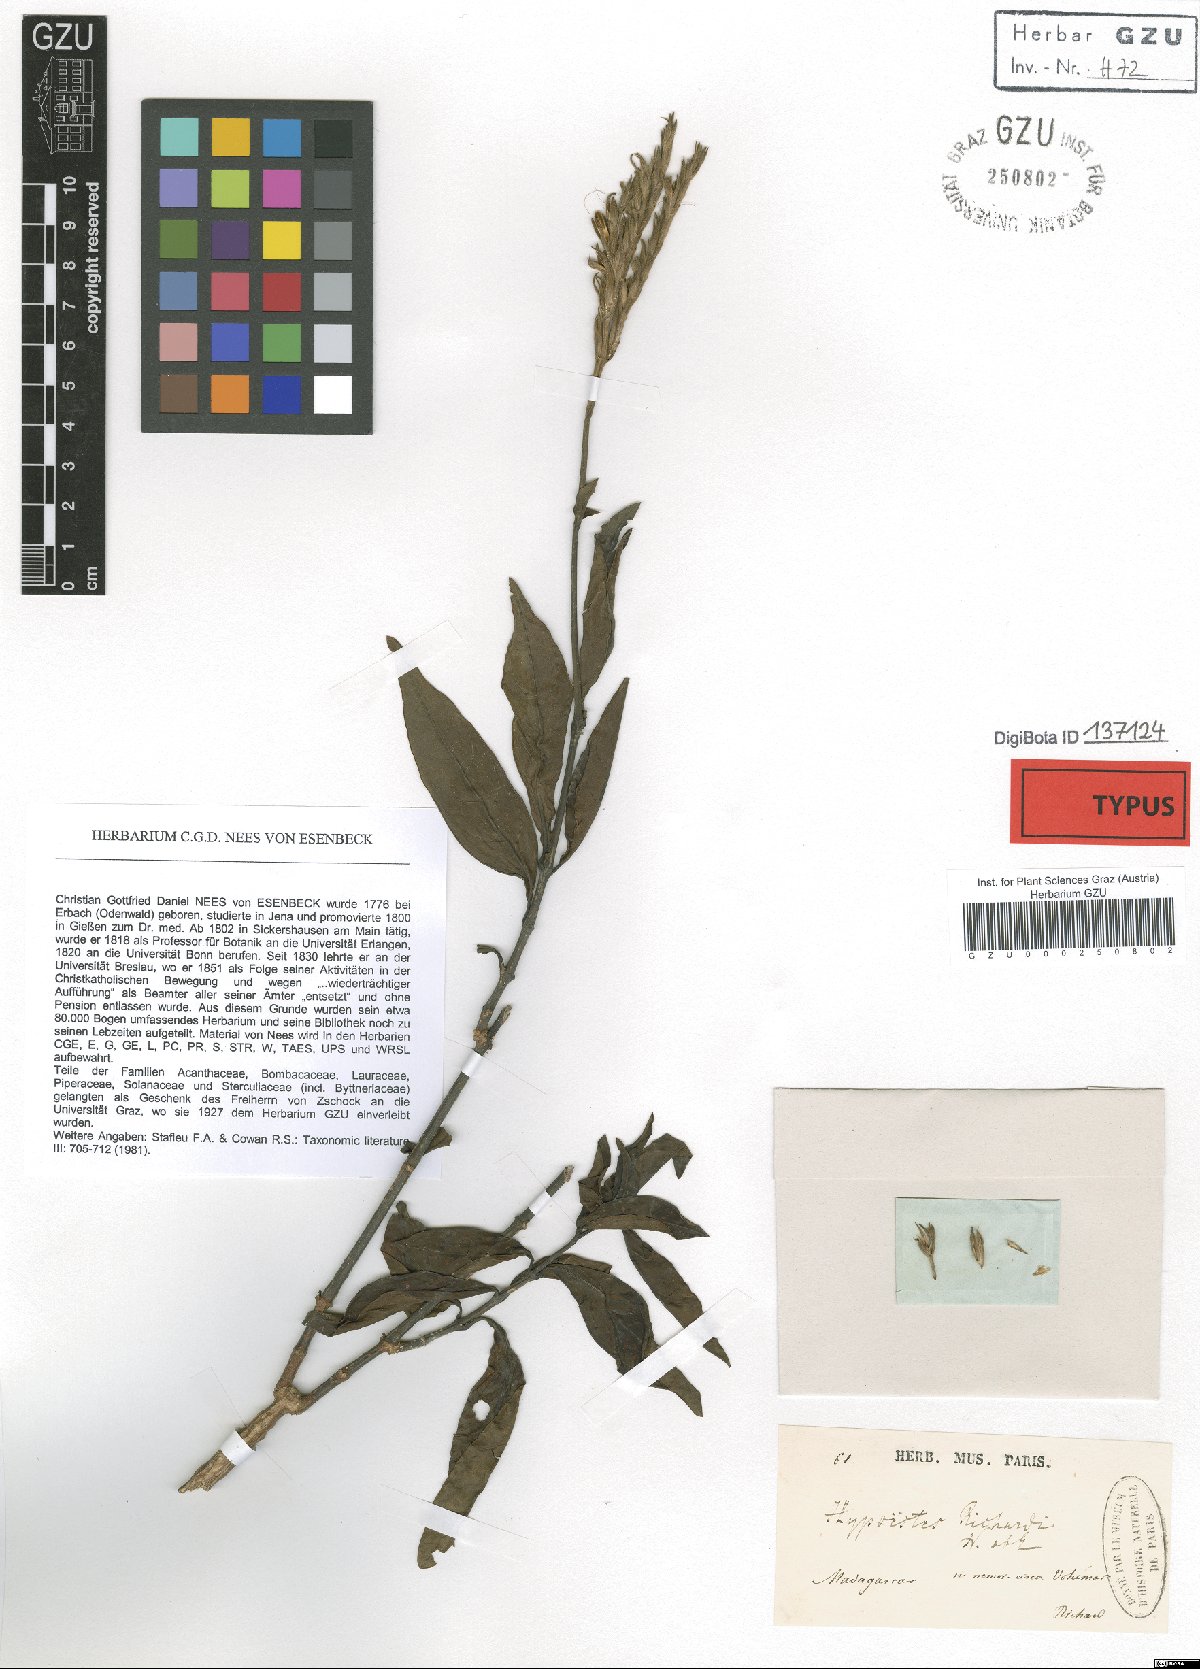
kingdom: Plantae
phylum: Tracheophyta
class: Magnoliopsida
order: Lamiales
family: Acanthaceae
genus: Hypoestes
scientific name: Hypoestes richardii
